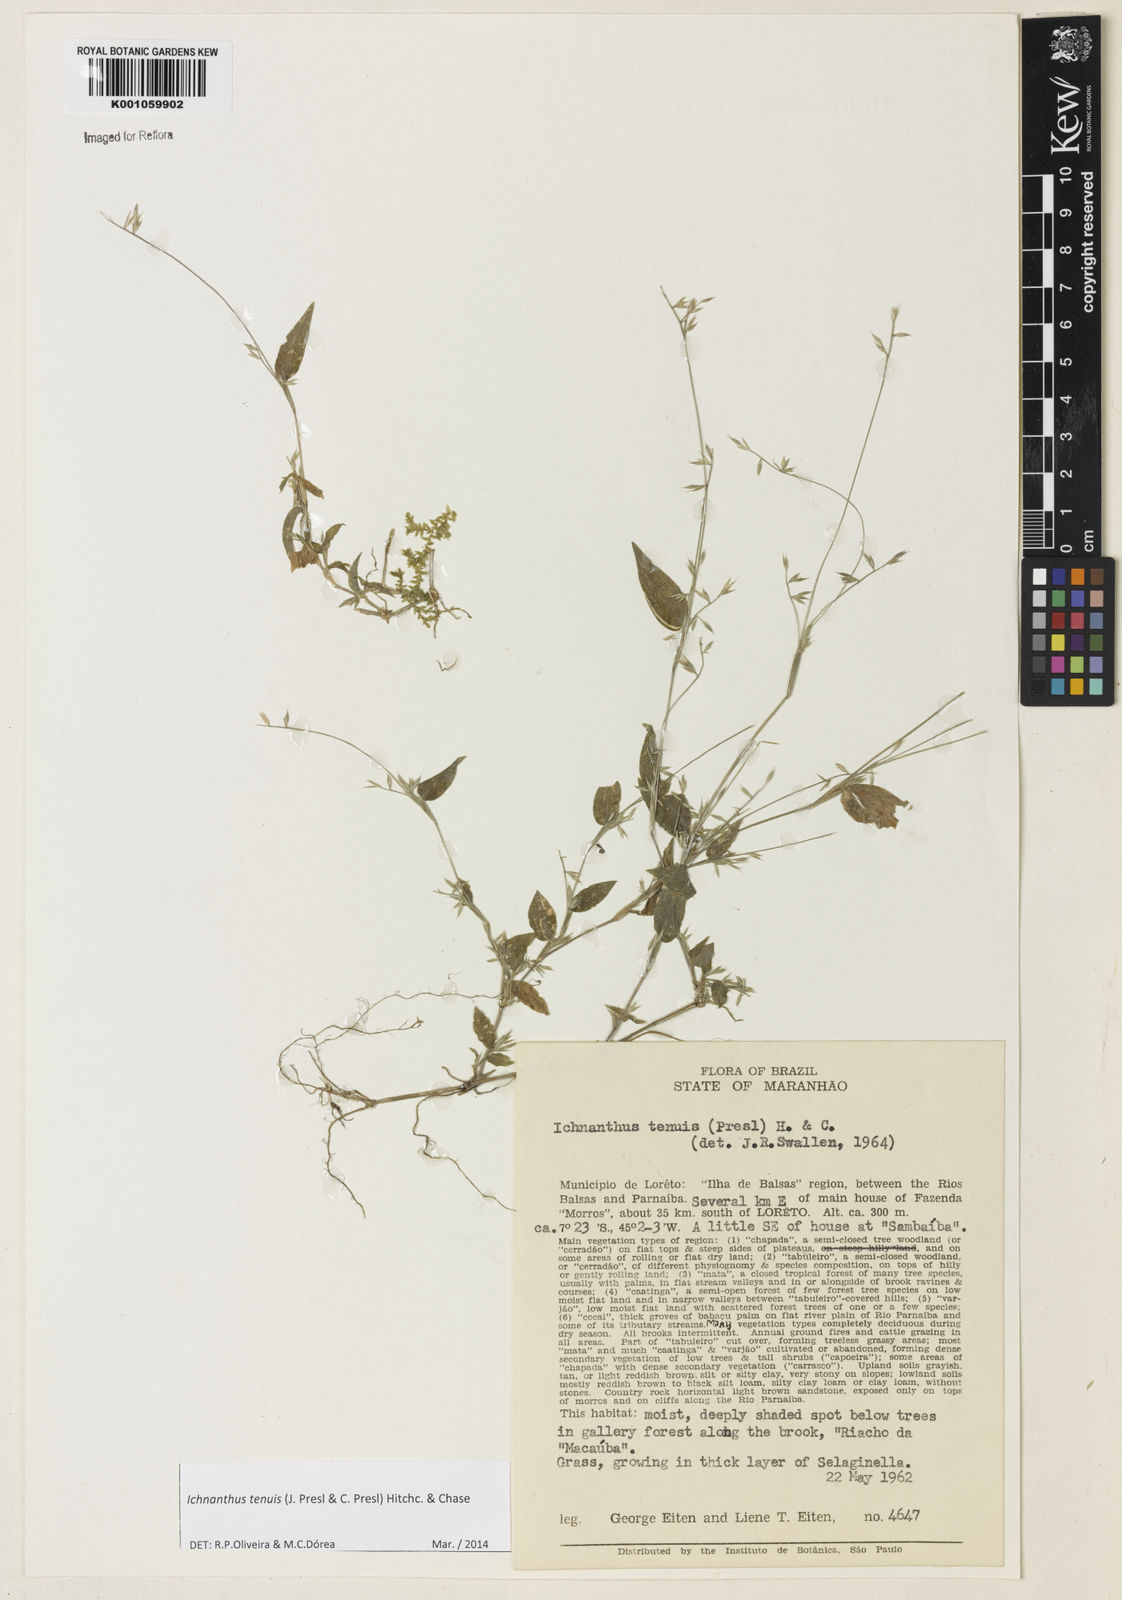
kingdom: Plantae
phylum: Tracheophyta
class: Liliopsida
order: Poales
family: Poaceae
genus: Ichnanthus
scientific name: Ichnanthus tenuis
